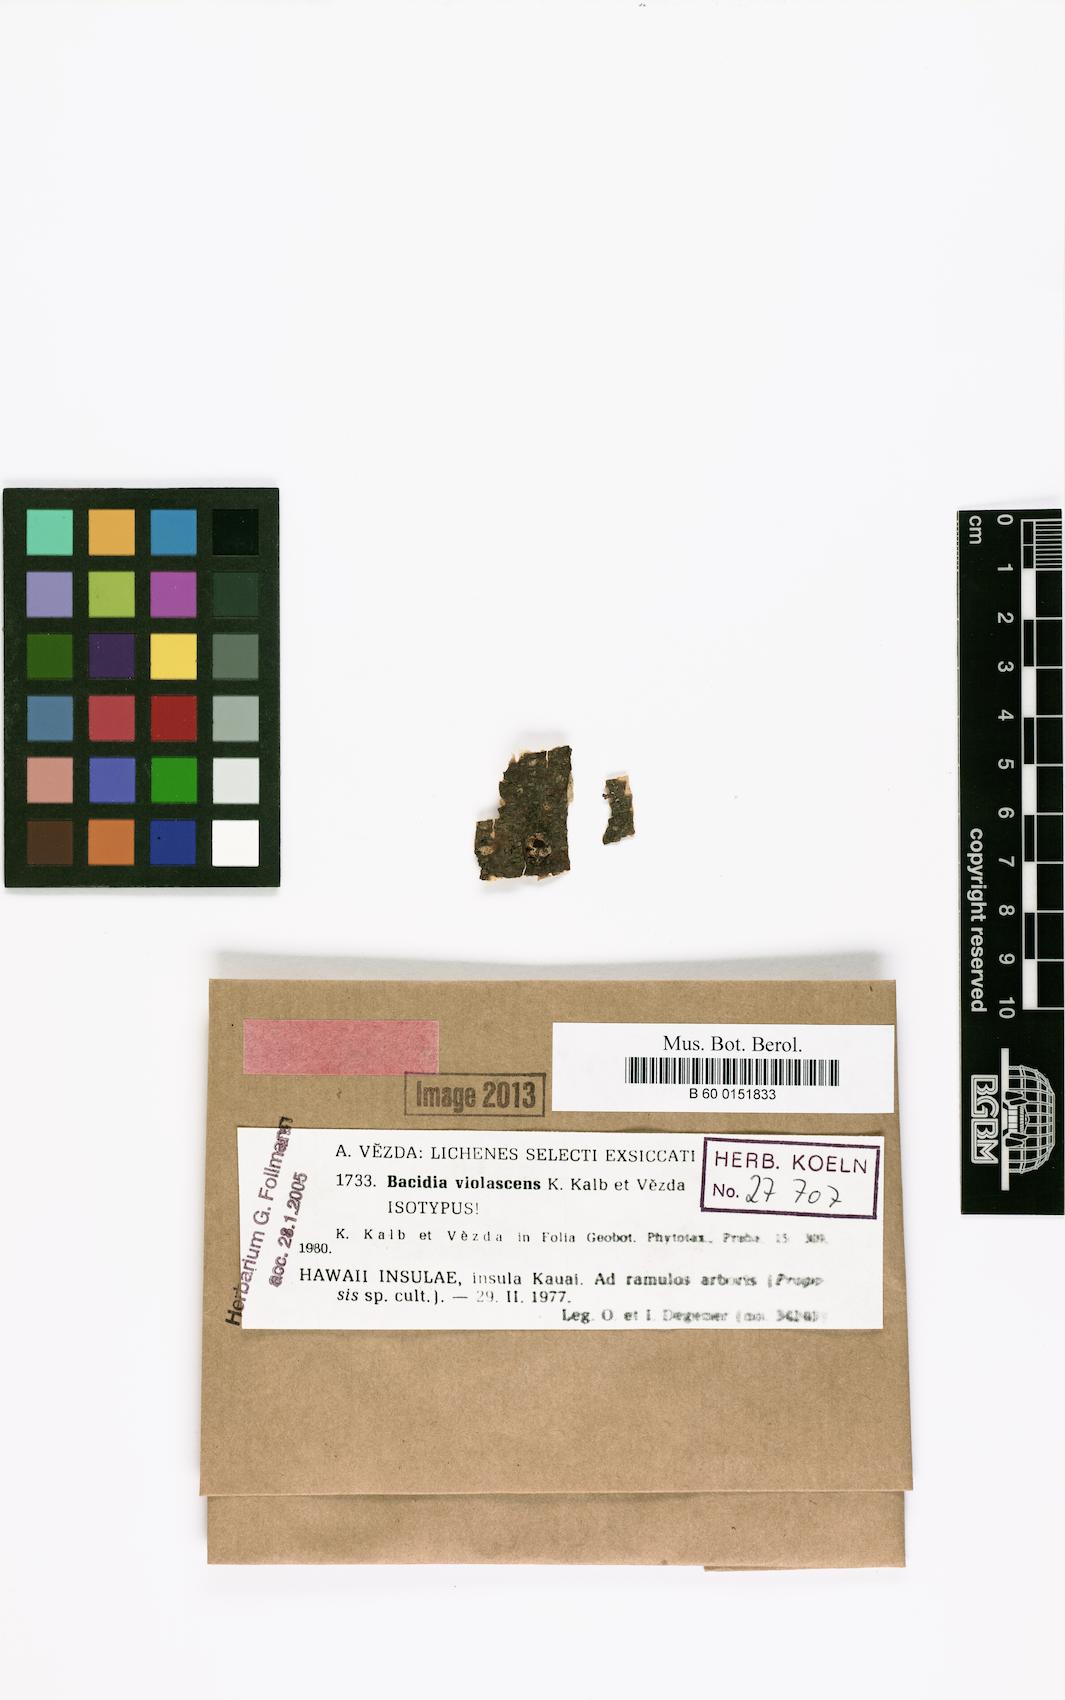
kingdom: Fungi
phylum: Ascomycota
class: Lecanoromycetes
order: Lecanorales
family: Ramalinaceae
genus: Mycobilimbia
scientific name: Mycobilimbia violascens
